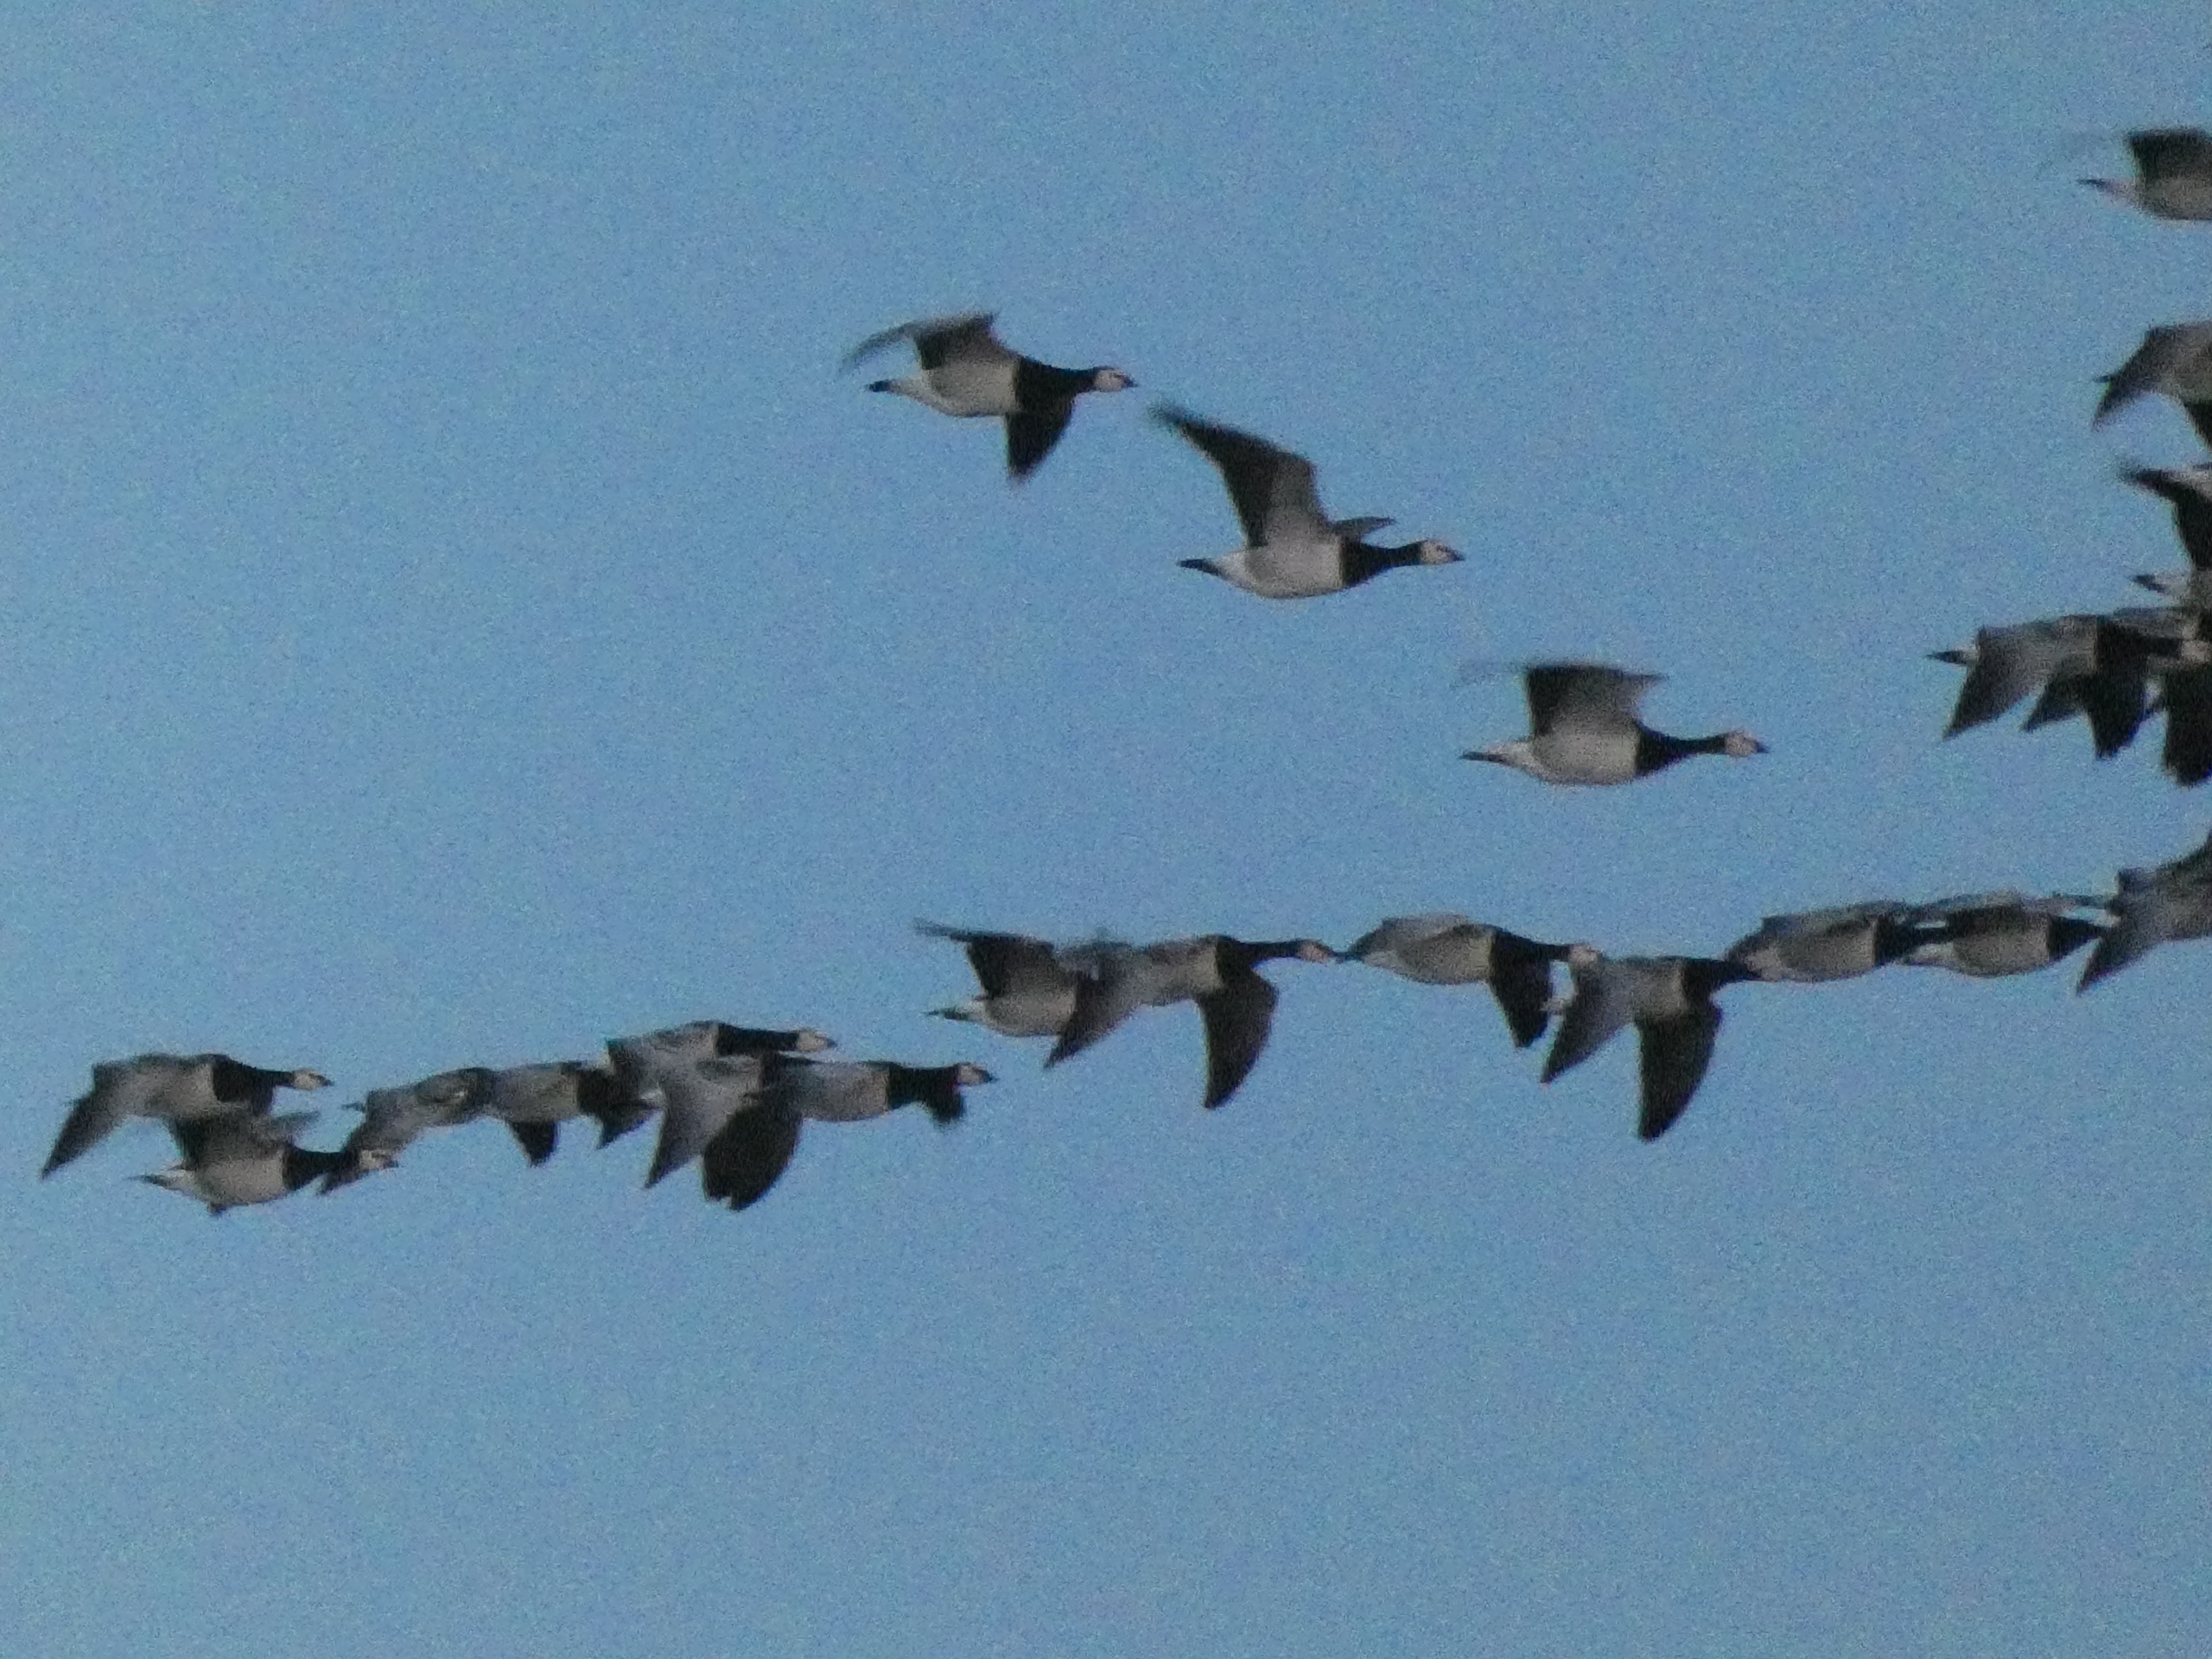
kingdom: Animalia
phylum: Chordata
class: Aves
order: Anseriformes
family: Anatidae
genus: Branta
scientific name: Branta leucopsis
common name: Bramgås
